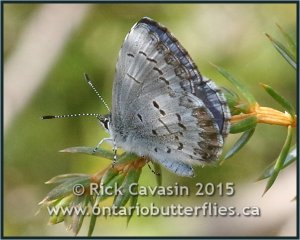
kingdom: Animalia
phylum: Arthropoda
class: Insecta
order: Lepidoptera
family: Lycaenidae
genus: Celastrina
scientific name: Celastrina lucia
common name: Northern Spring Azure
